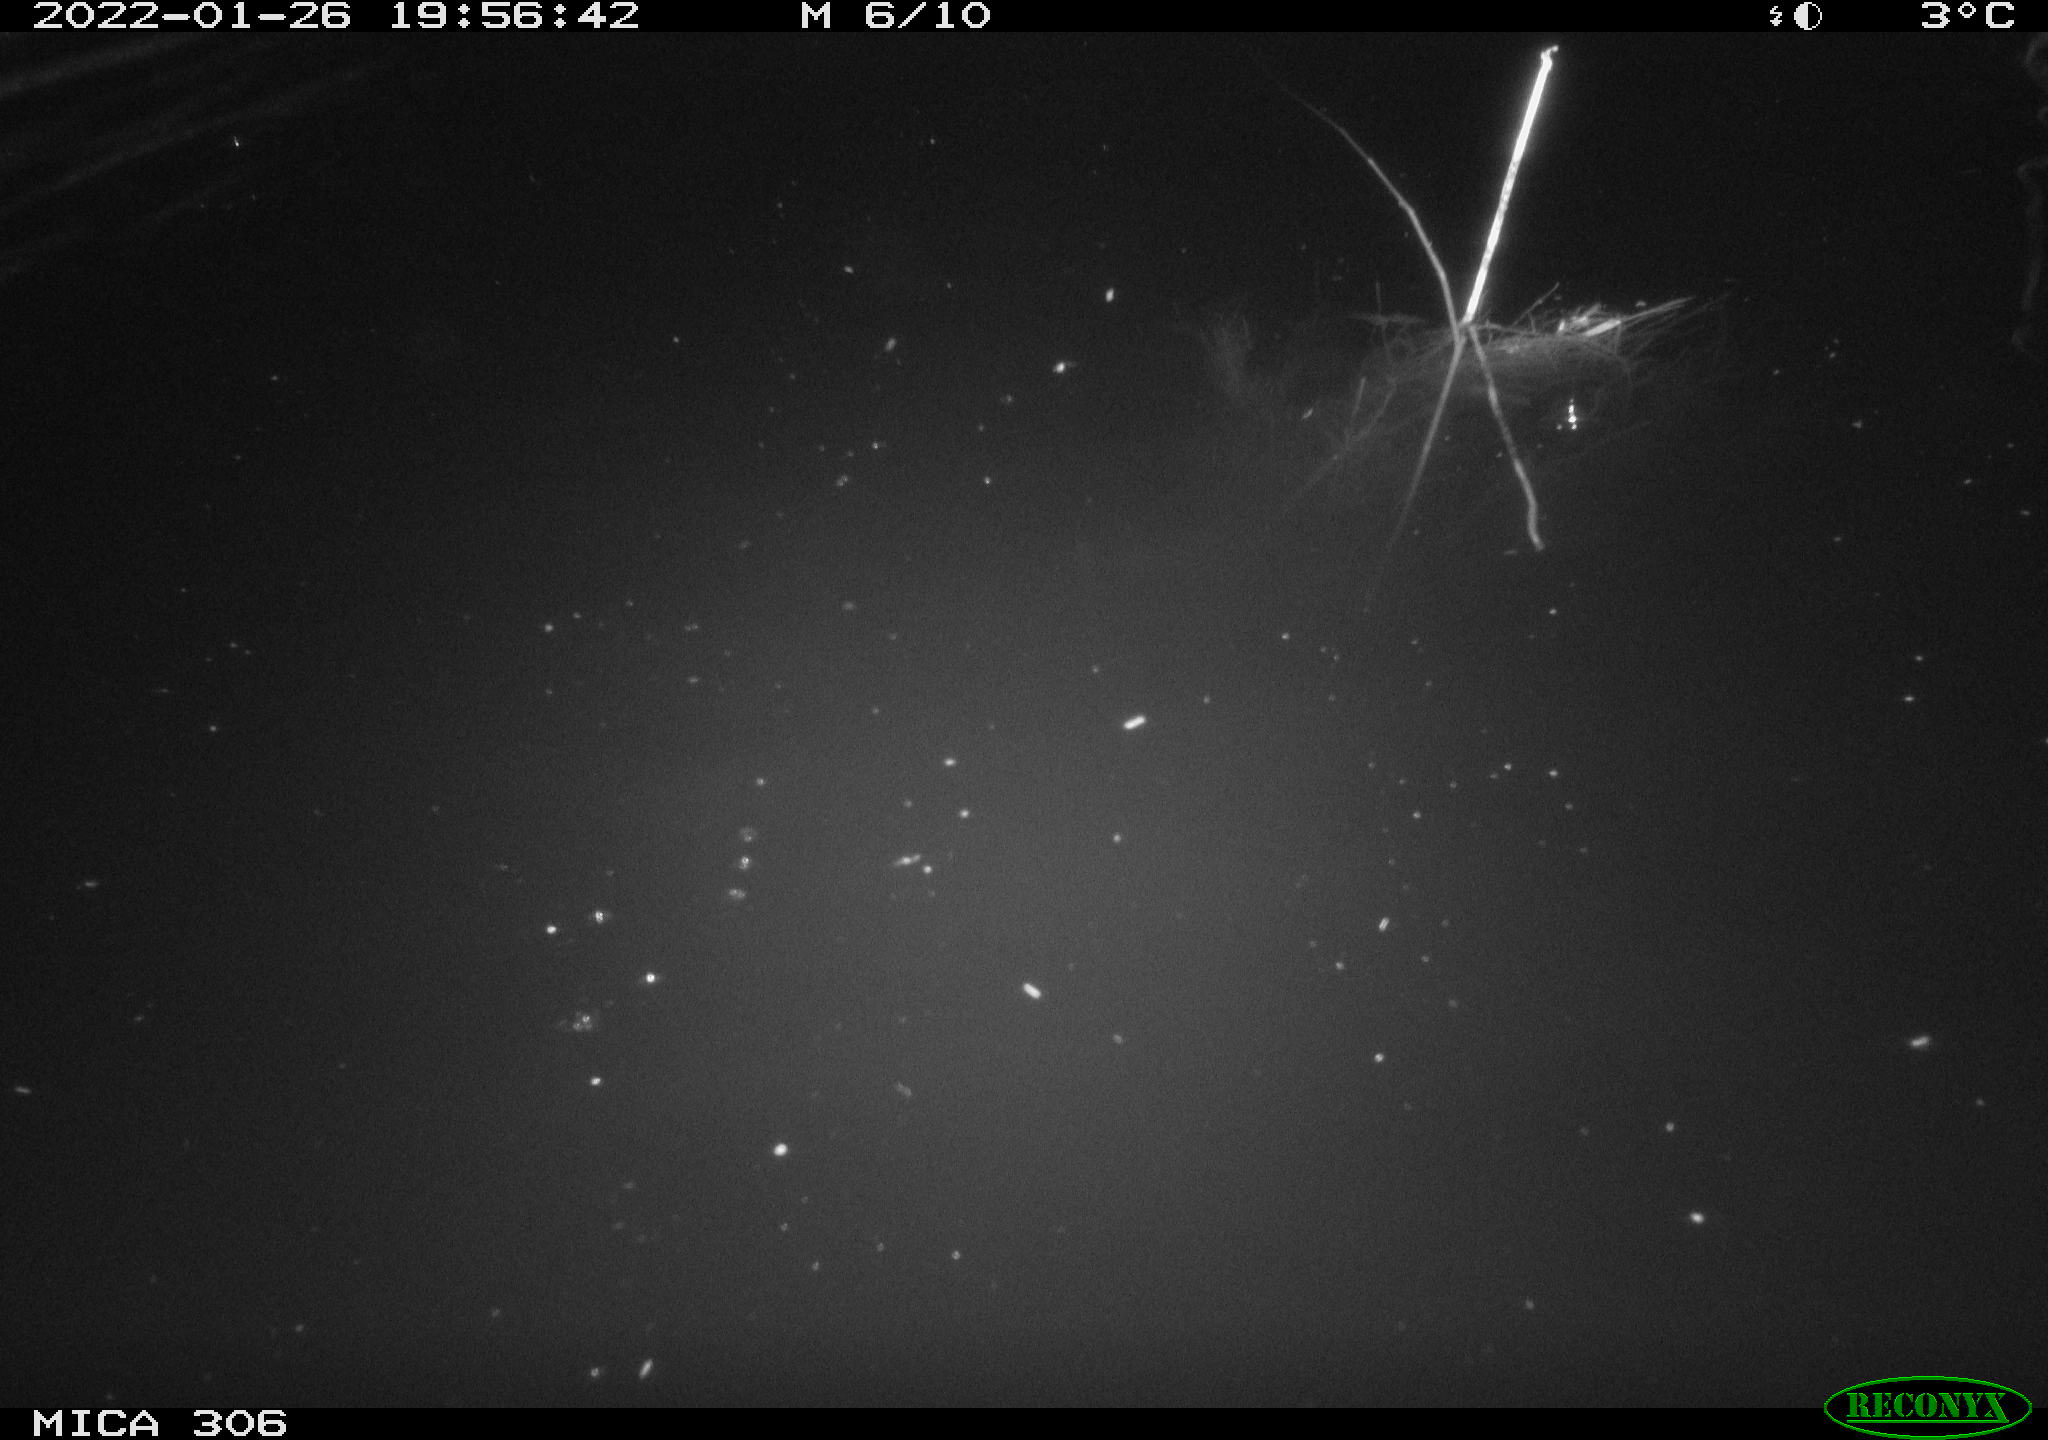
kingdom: Animalia
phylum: Chordata
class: Mammalia
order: Rodentia
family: Cricetidae
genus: Ondatra
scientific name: Ondatra zibethicus
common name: Muskrat
